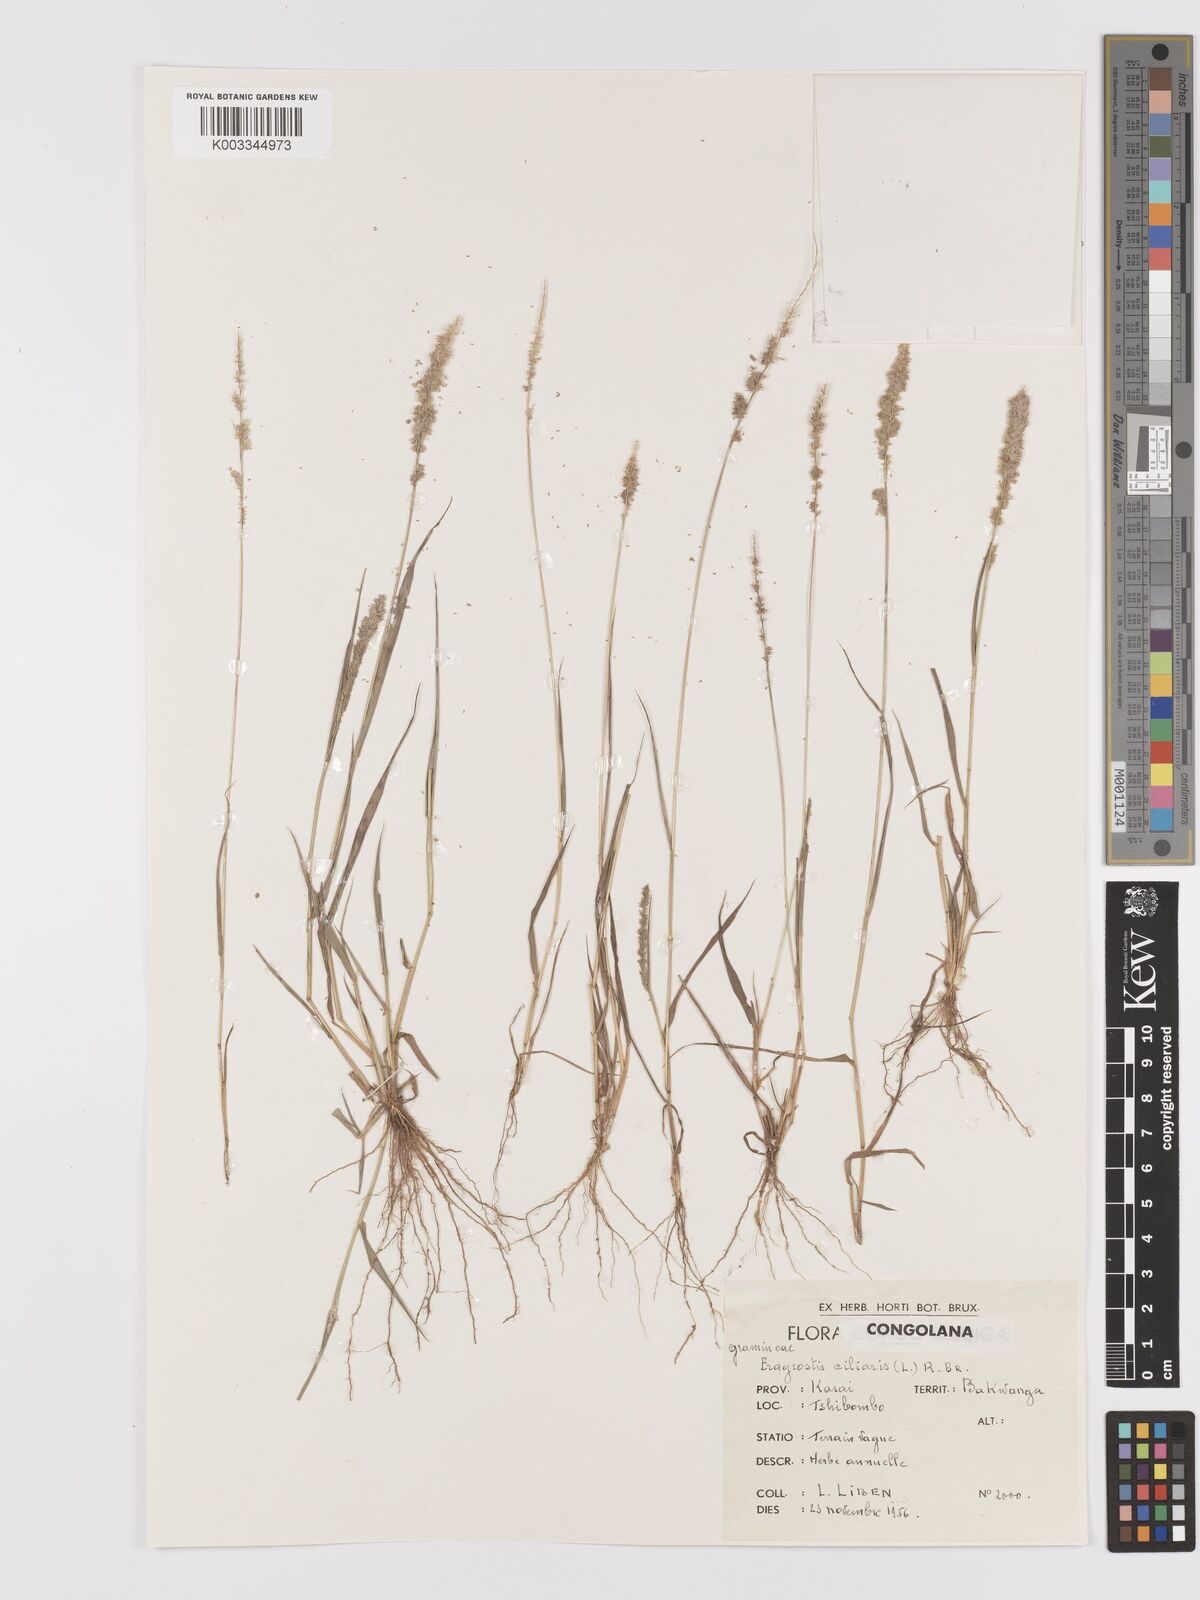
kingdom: Plantae
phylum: Tracheophyta
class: Liliopsida
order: Poales
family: Poaceae
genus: Eragrostis
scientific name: Eragrostis ciliaris
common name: Gophertail lovegrass
